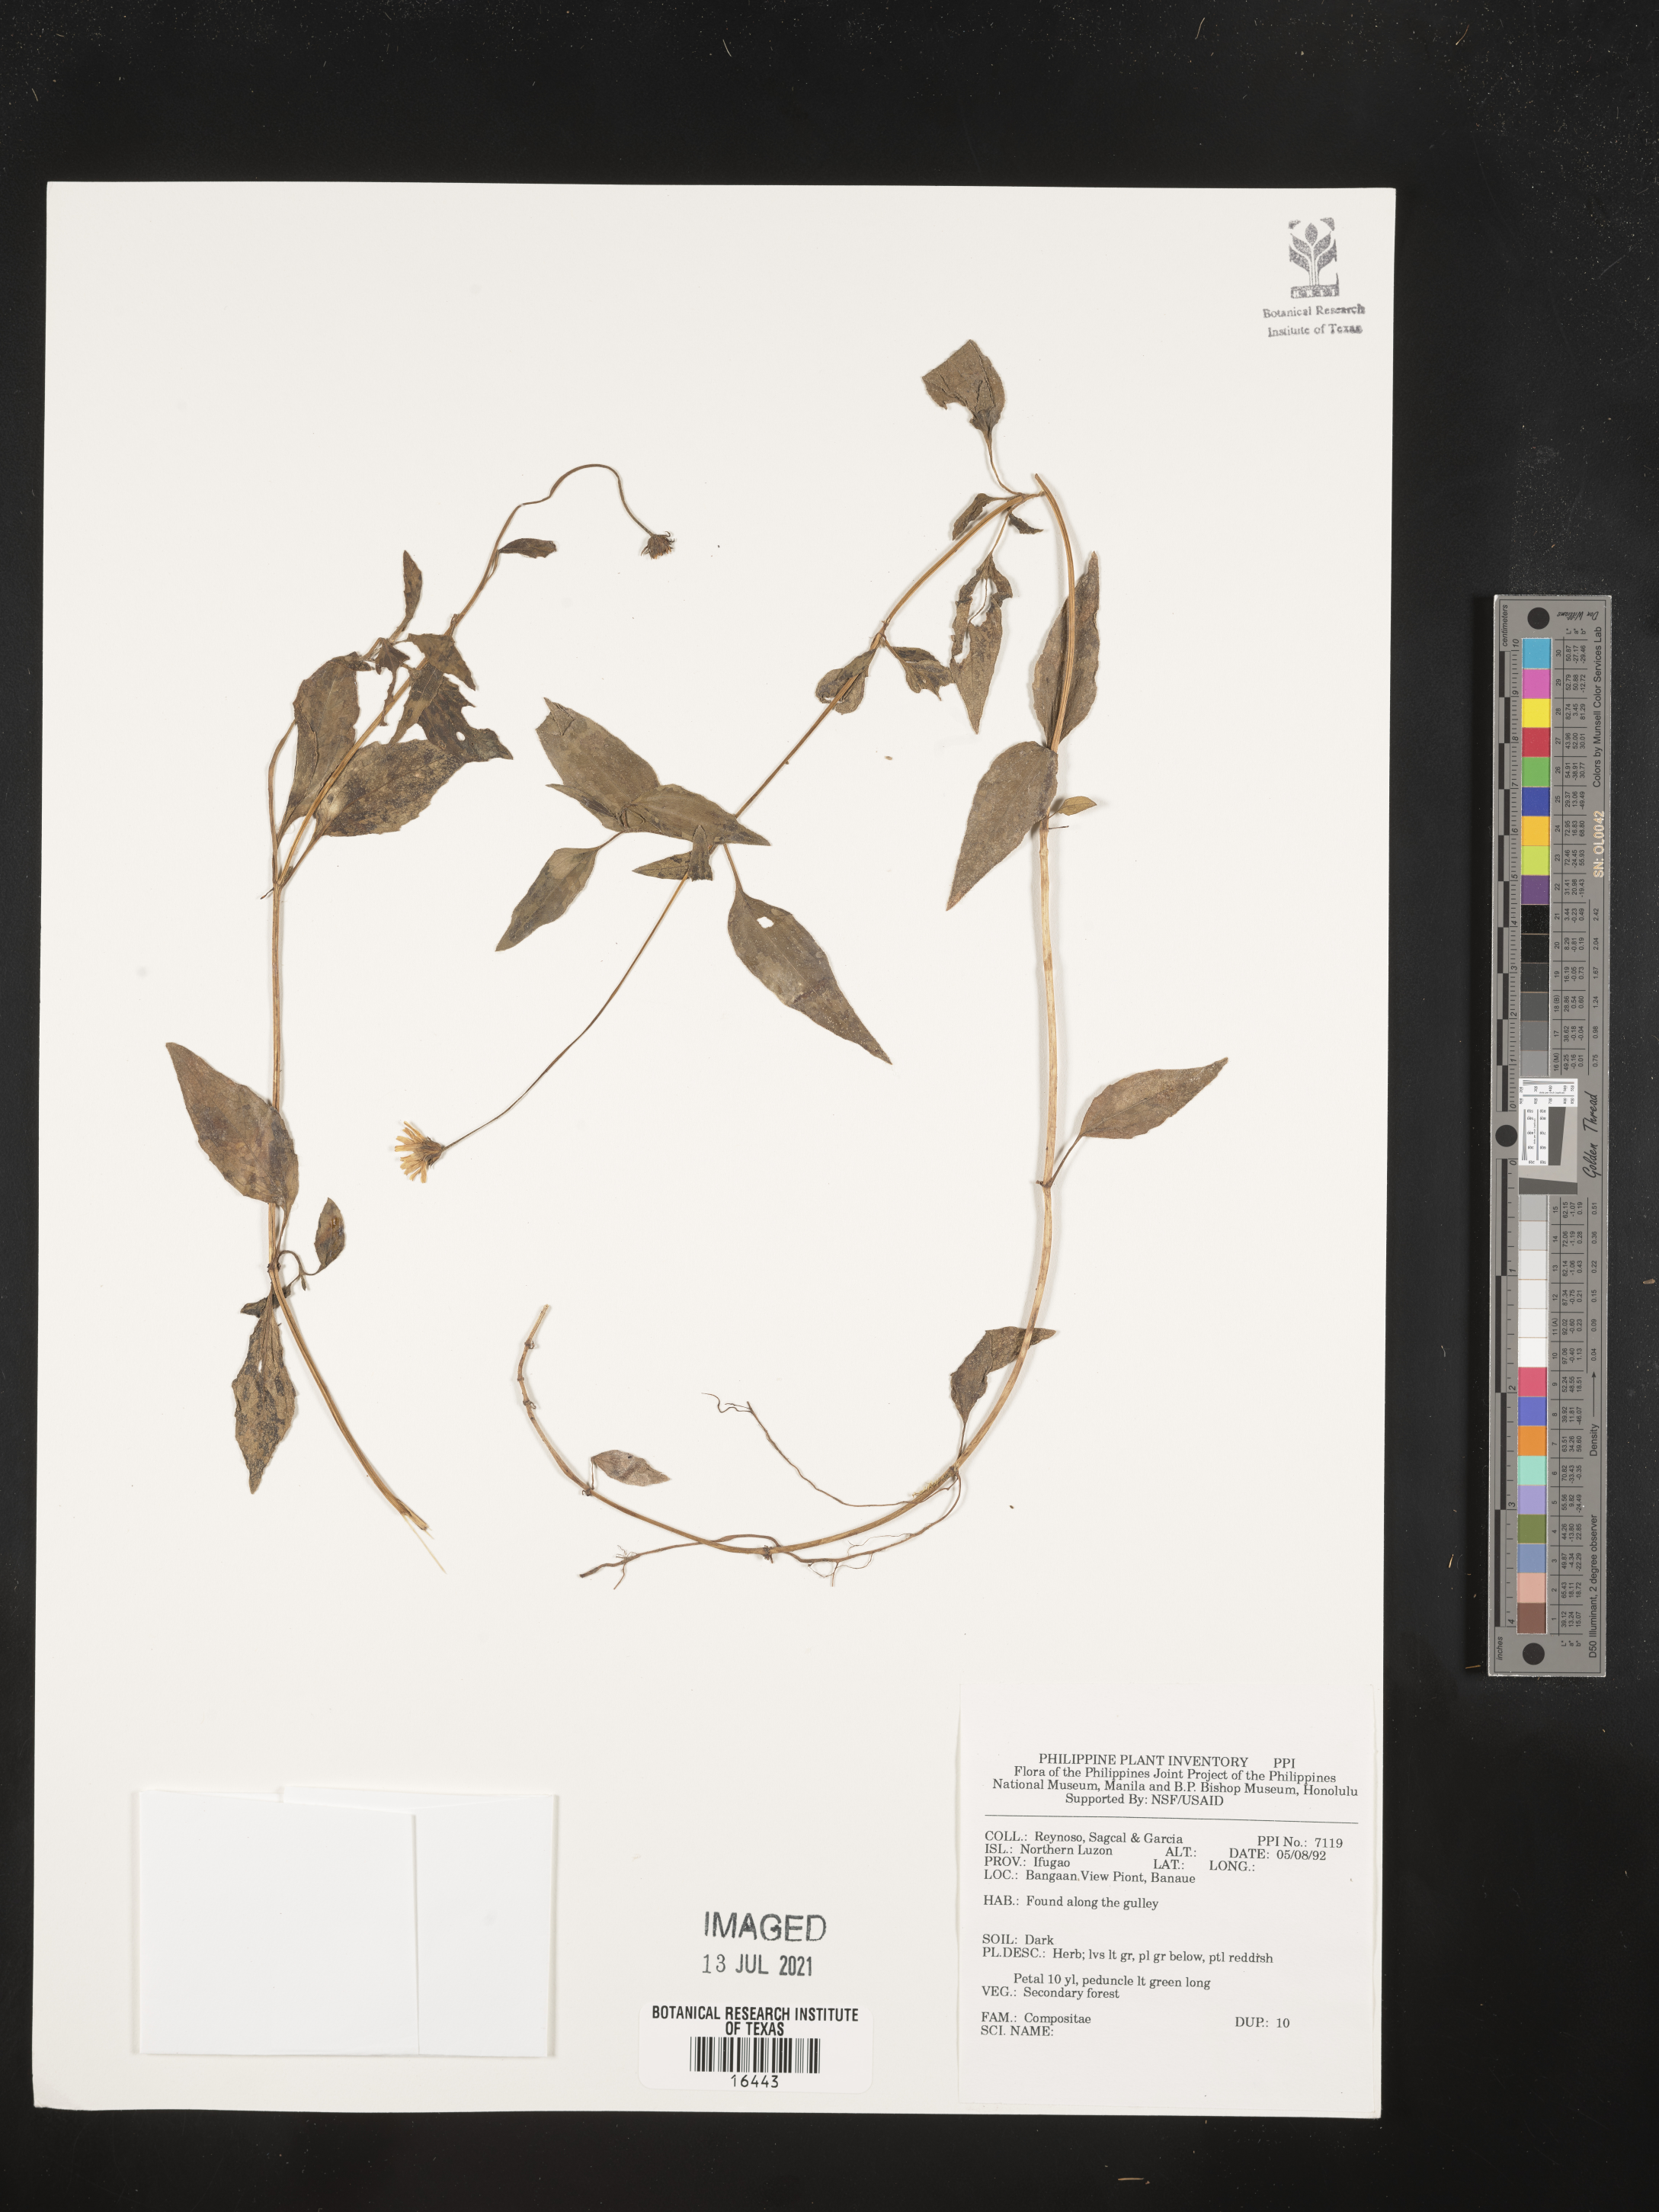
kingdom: Plantae
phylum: Tracheophyta
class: Magnoliopsida
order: Asterales
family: Asteraceae
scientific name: Asteraceae
